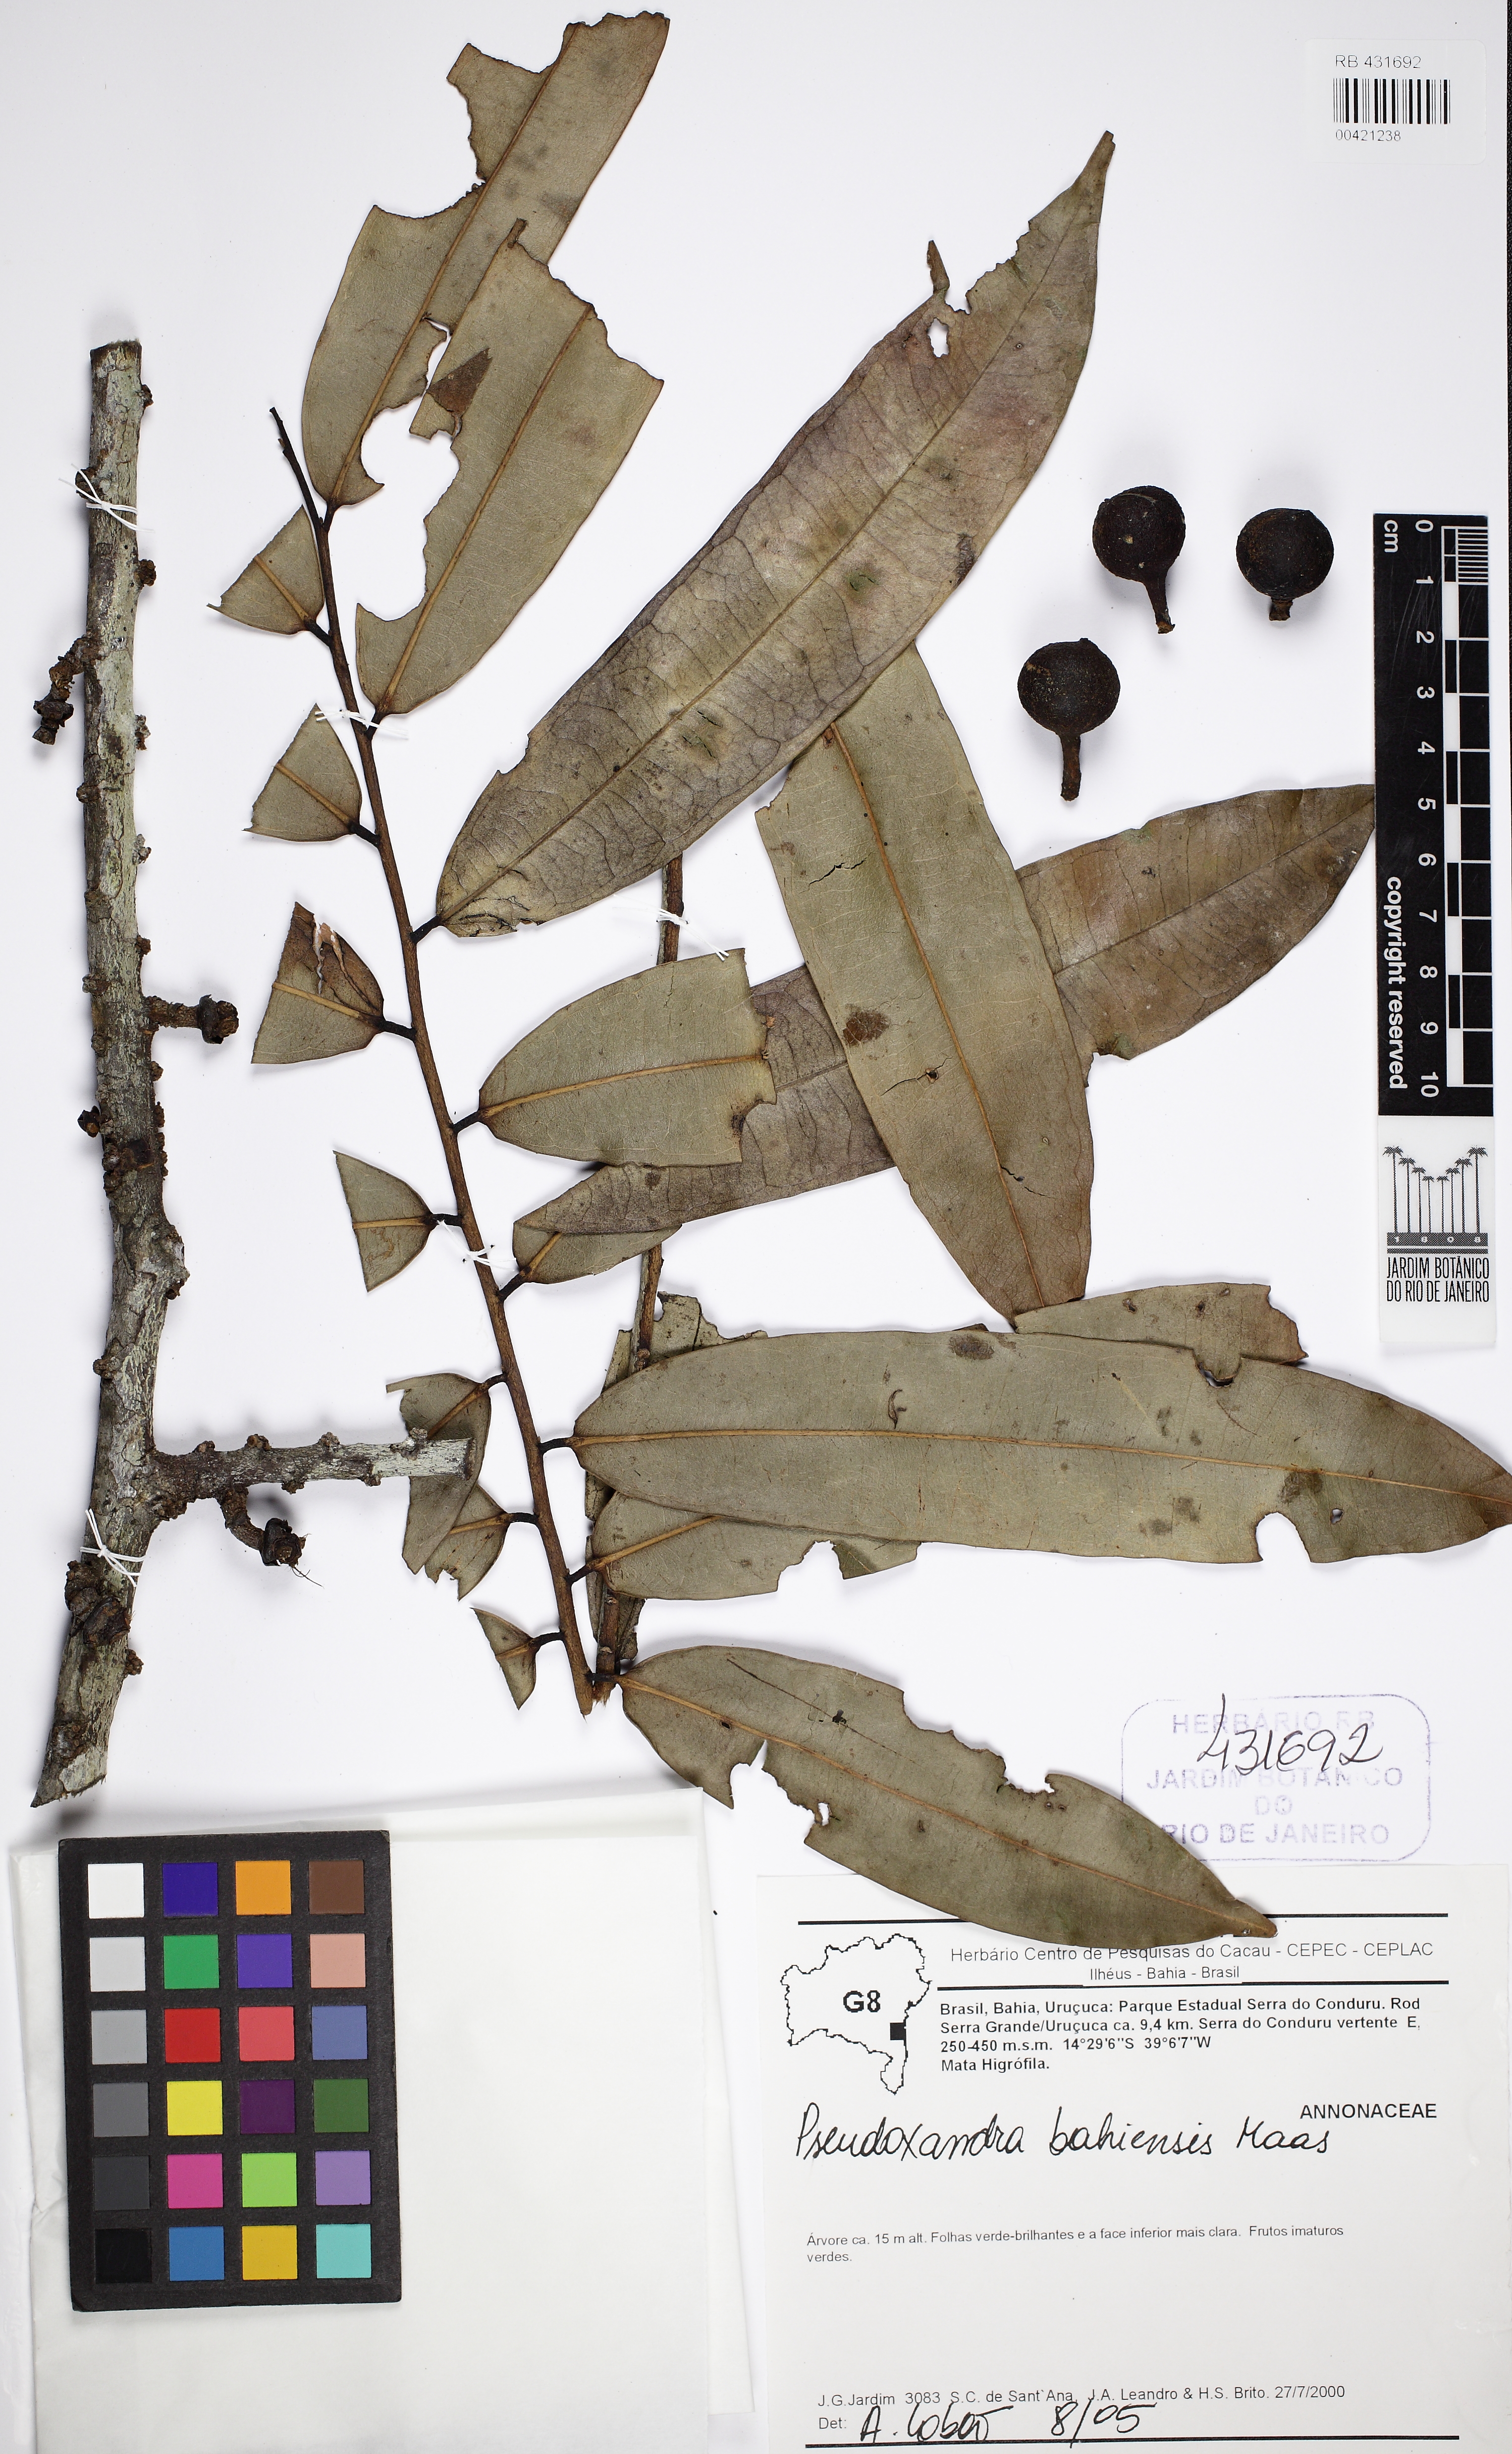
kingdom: Plantae
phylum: Tracheophyta
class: Magnoliopsida
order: Magnoliales
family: Annonaceae
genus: Pseudoxandra
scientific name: Pseudoxandra bahiensis
